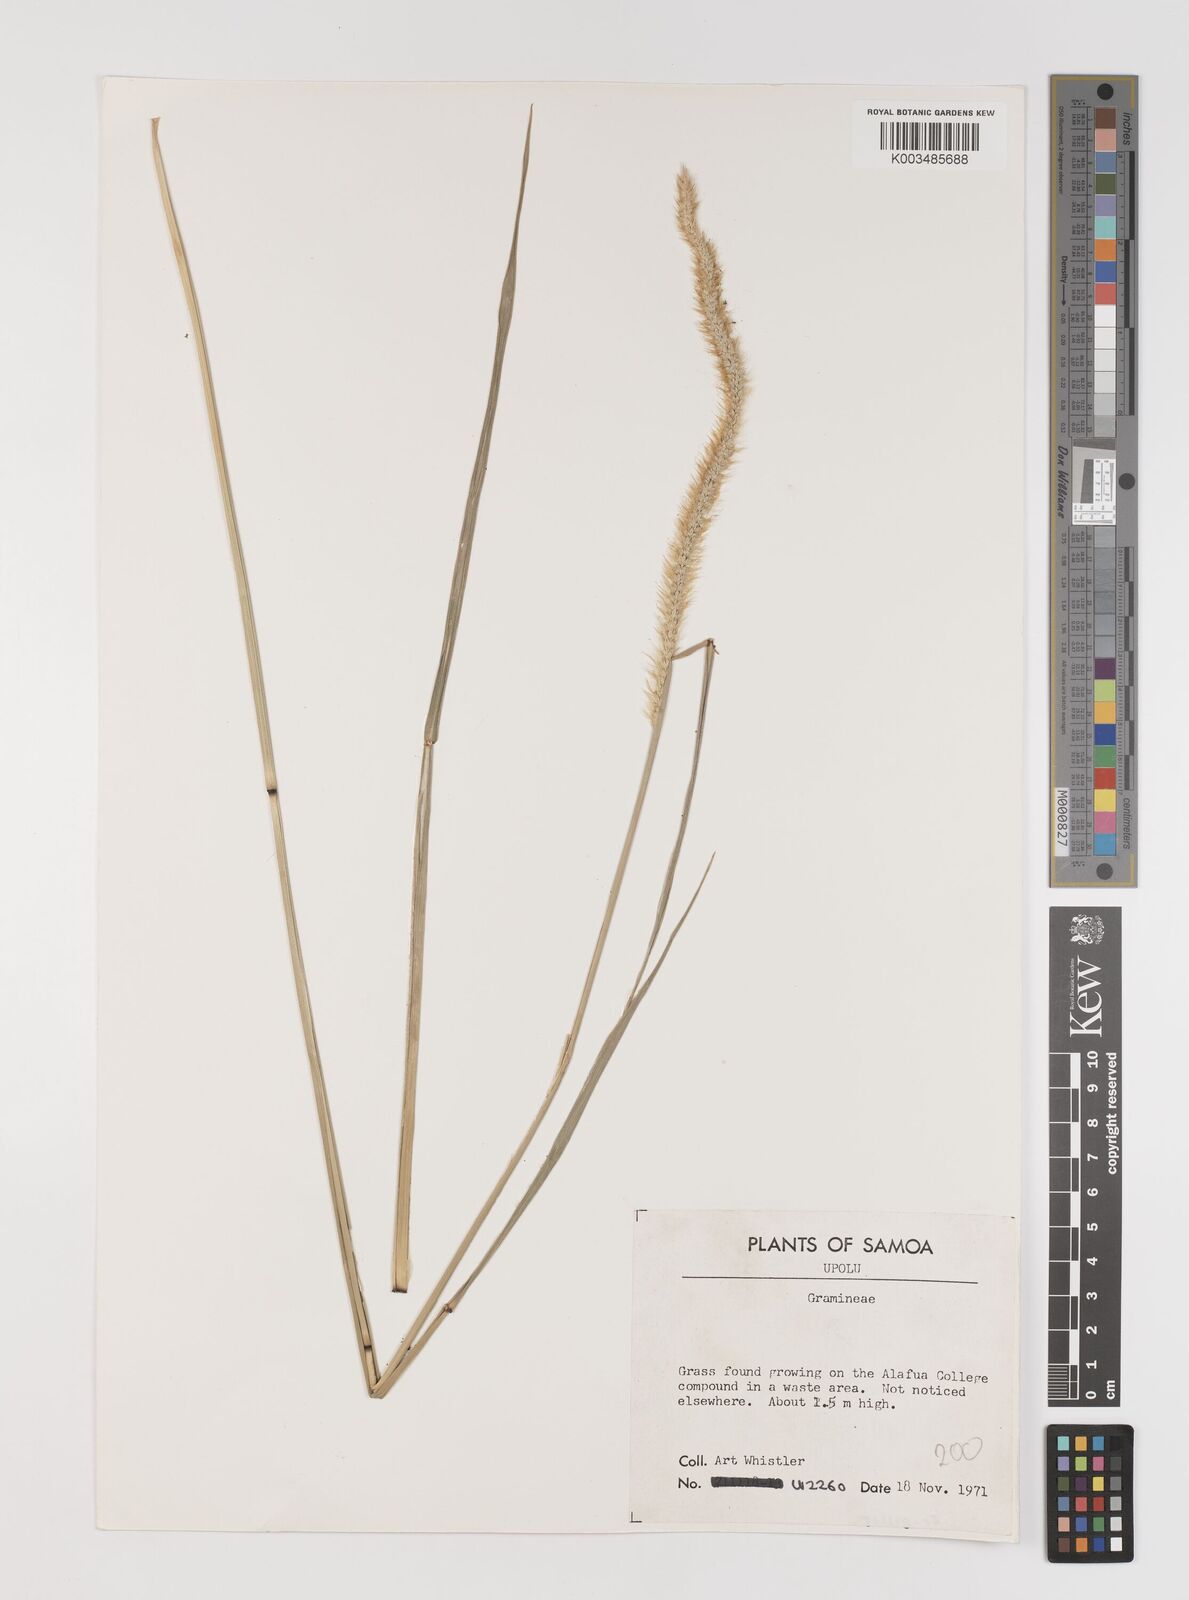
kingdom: Plantae
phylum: Tracheophyta
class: Liliopsida
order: Poales
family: Poaceae
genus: Setaria
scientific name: Setaria sphacelata
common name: African bristlegrass
